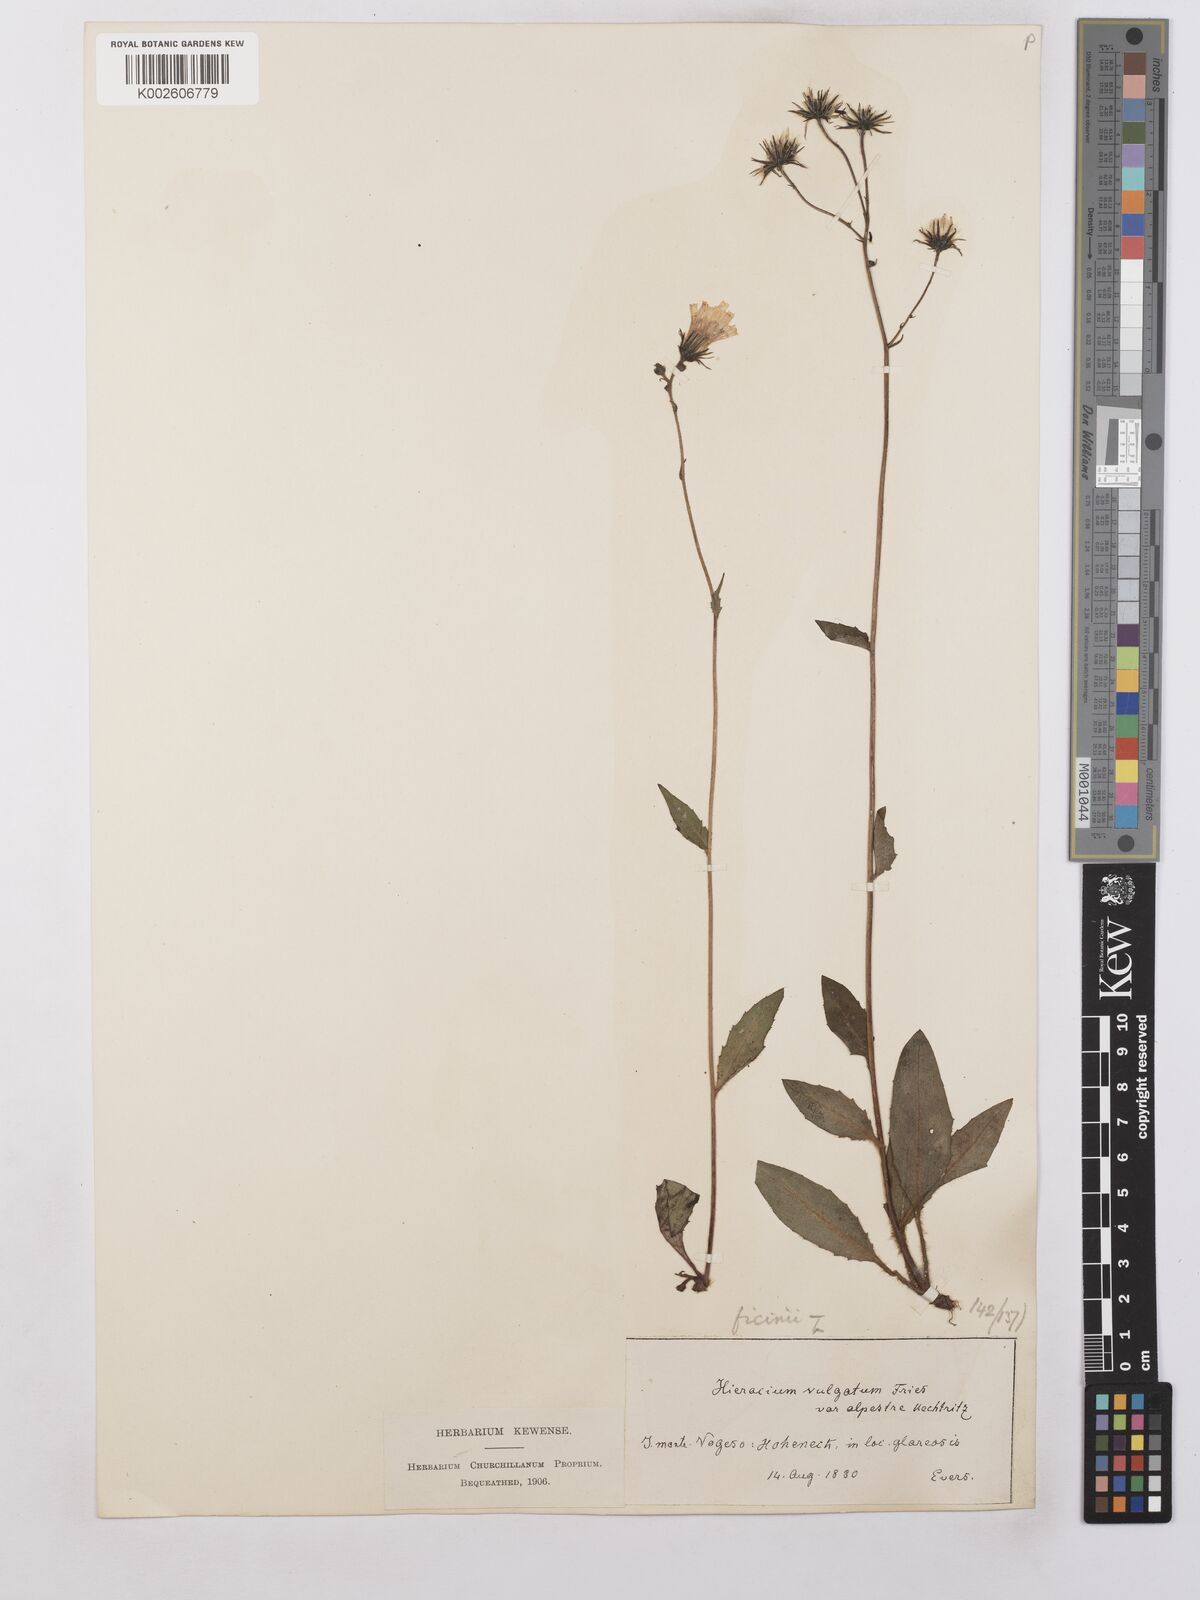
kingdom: Plantae
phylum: Tracheophyta
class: Magnoliopsida
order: Asterales
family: Asteraceae
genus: Hieracium
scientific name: Hieracium lachenalii
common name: Common hawkweed
